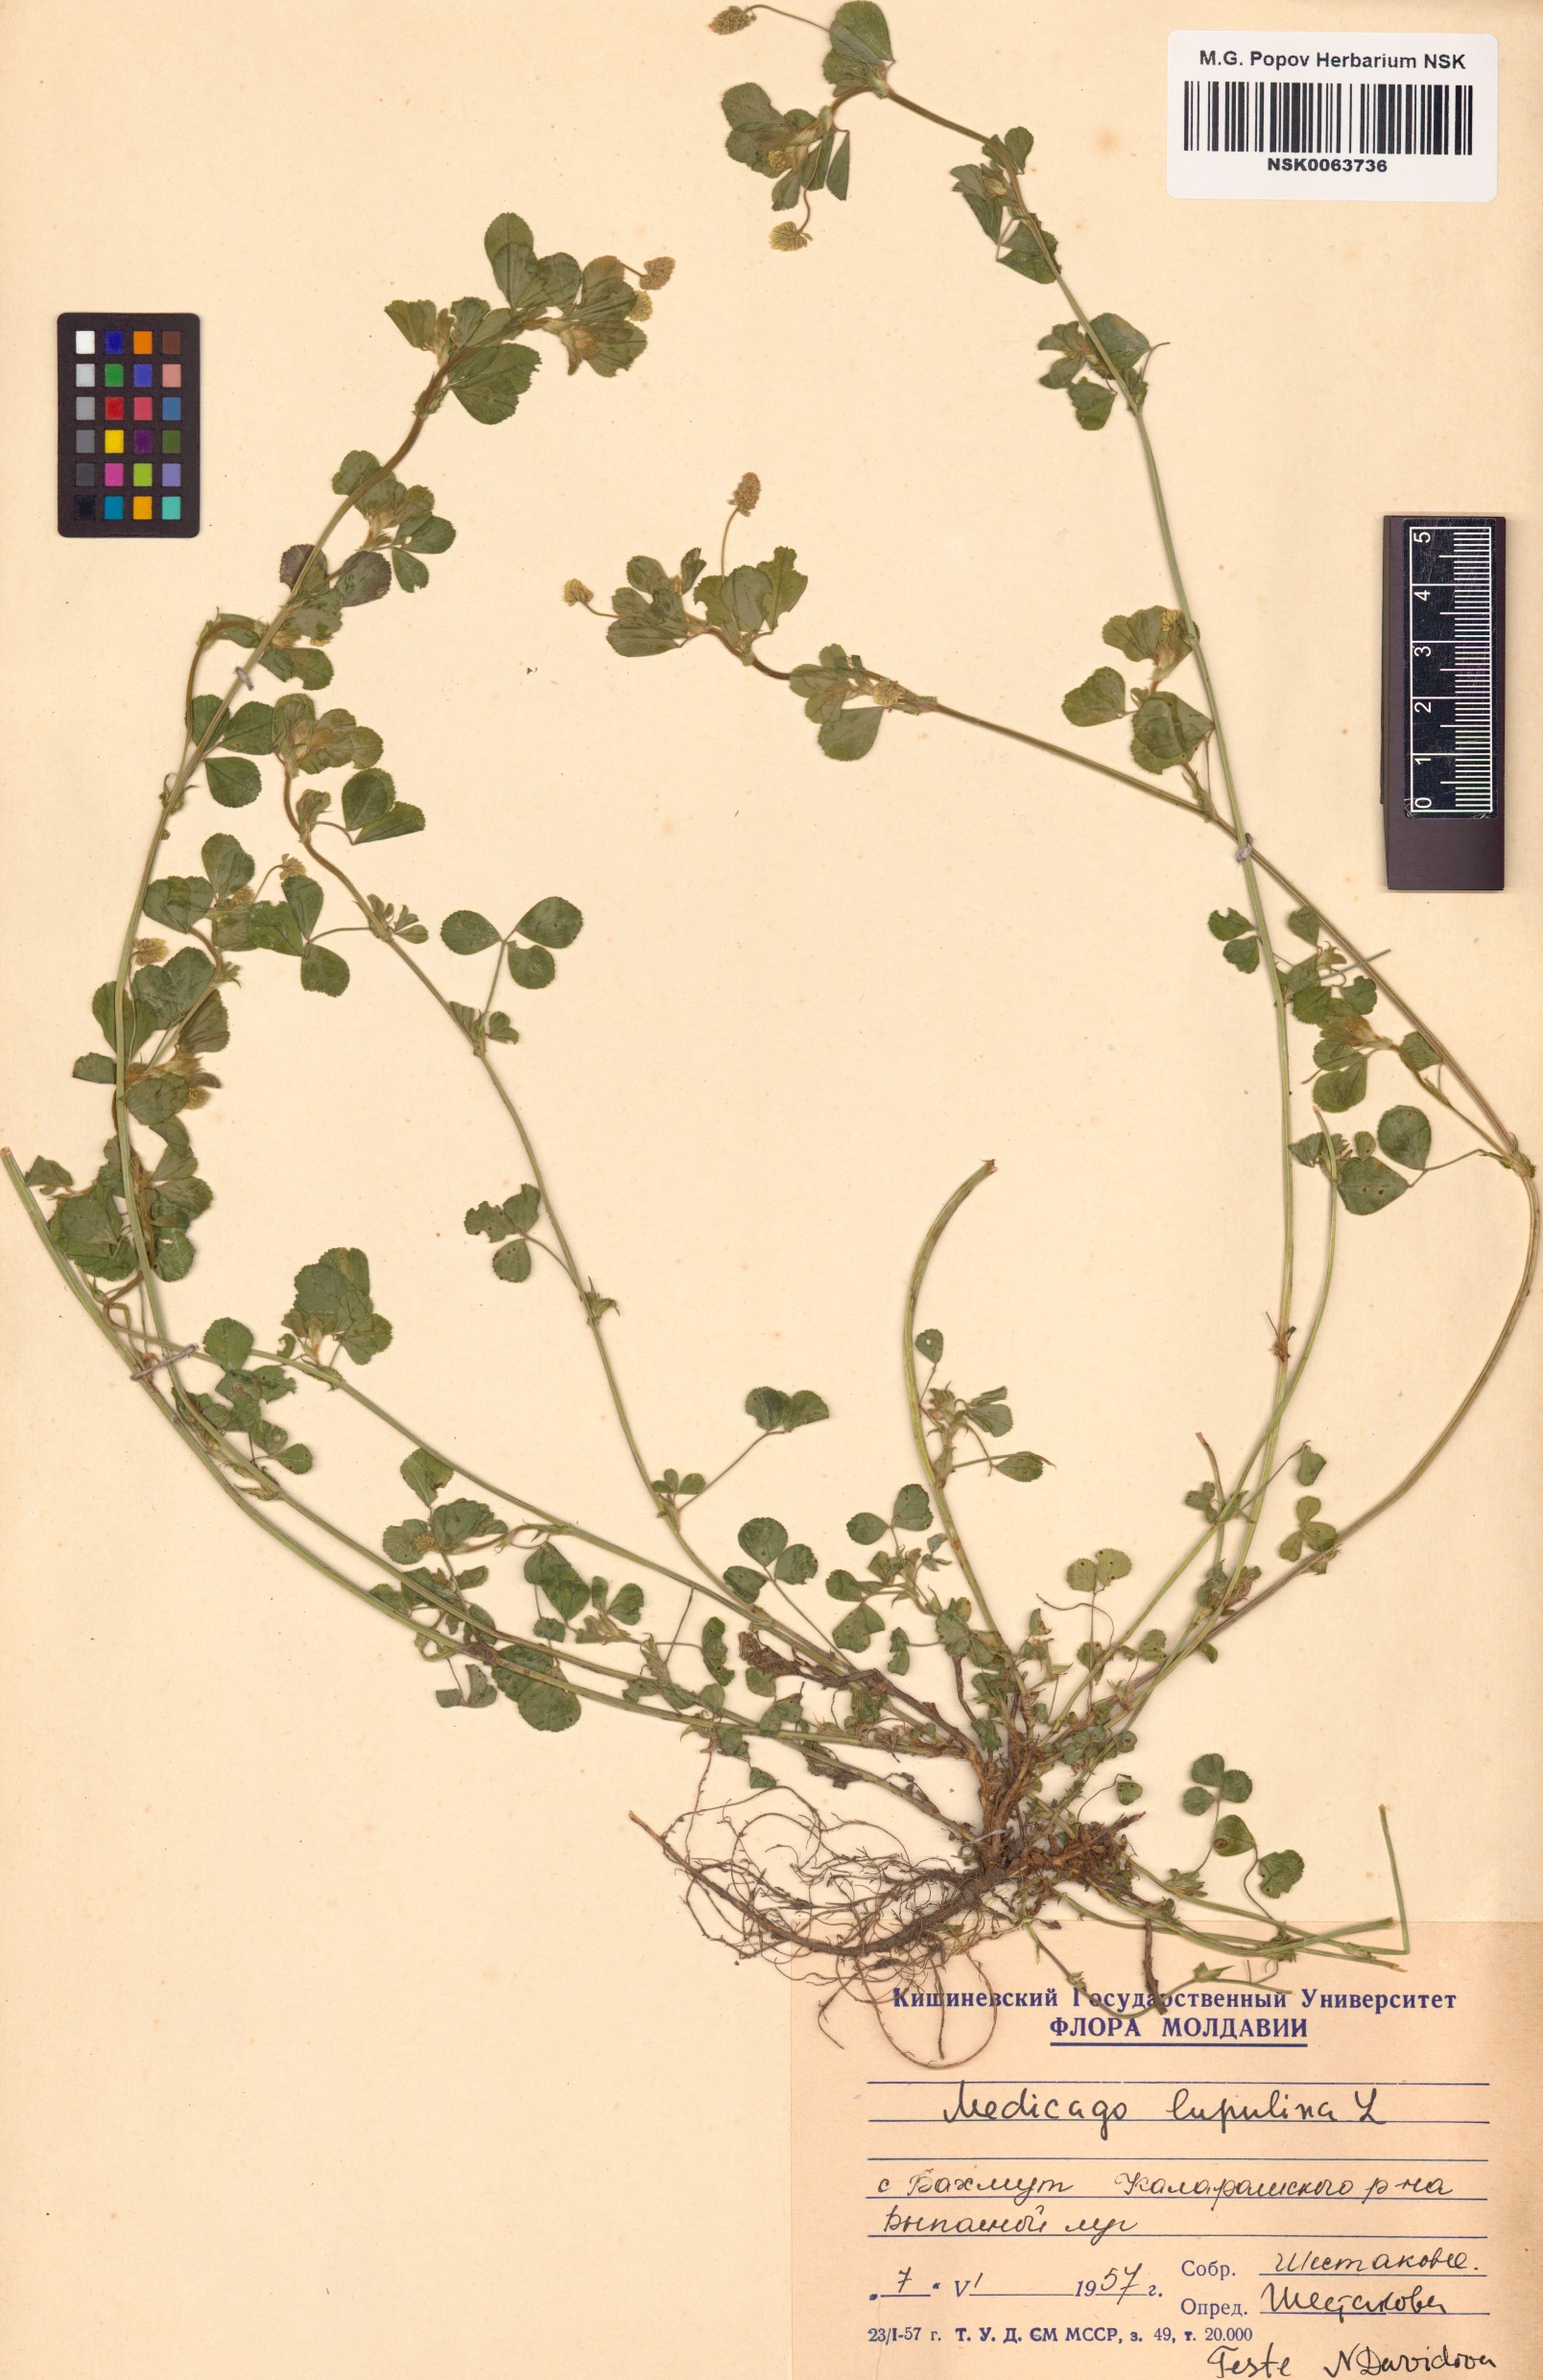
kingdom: Plantae
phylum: Tracheophyta
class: Magnoliopsida
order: Fabales
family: Fabaceae
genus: Medicago
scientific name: Medicago lupulina
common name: Black medick
